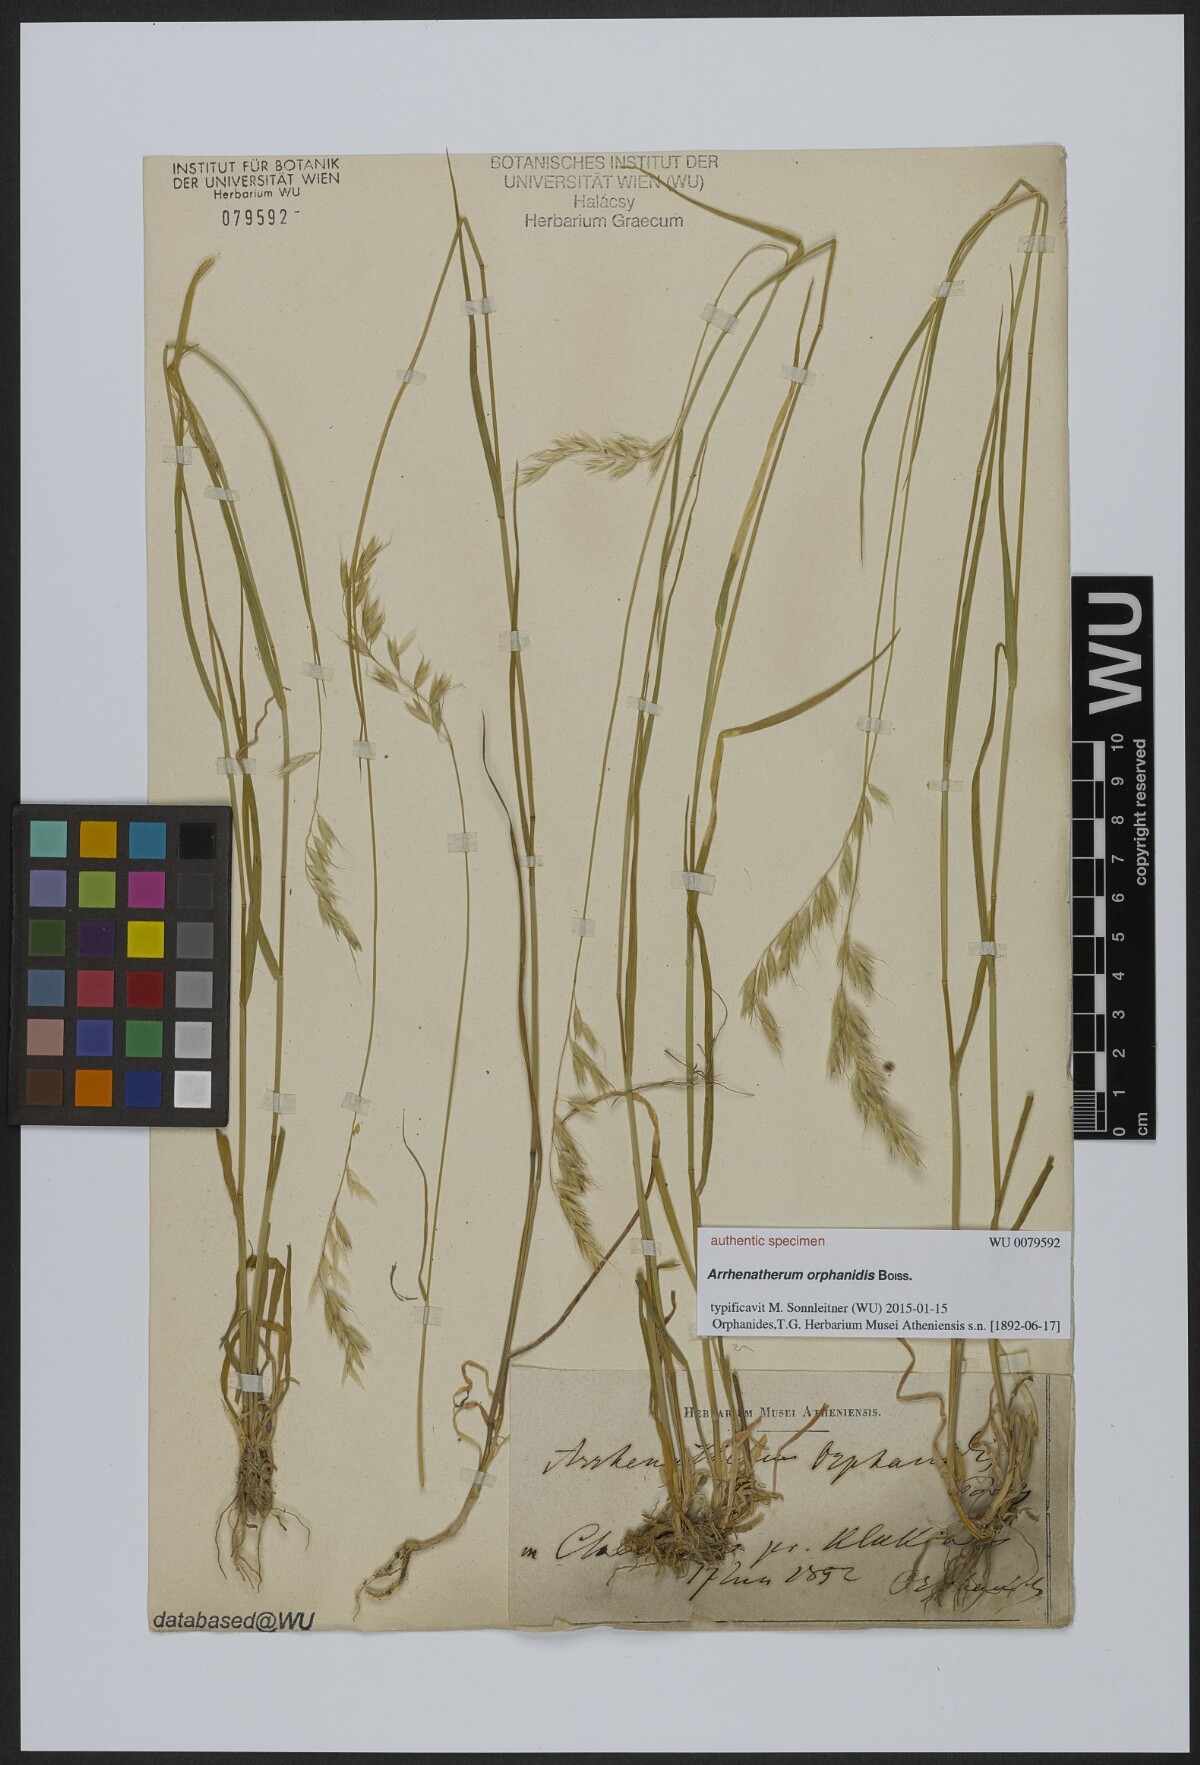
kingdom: Plantae
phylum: Tracheophyta
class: Liliopsida
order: Poales
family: Poaceae
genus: Arrhenatherum
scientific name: Arrhenatherum
